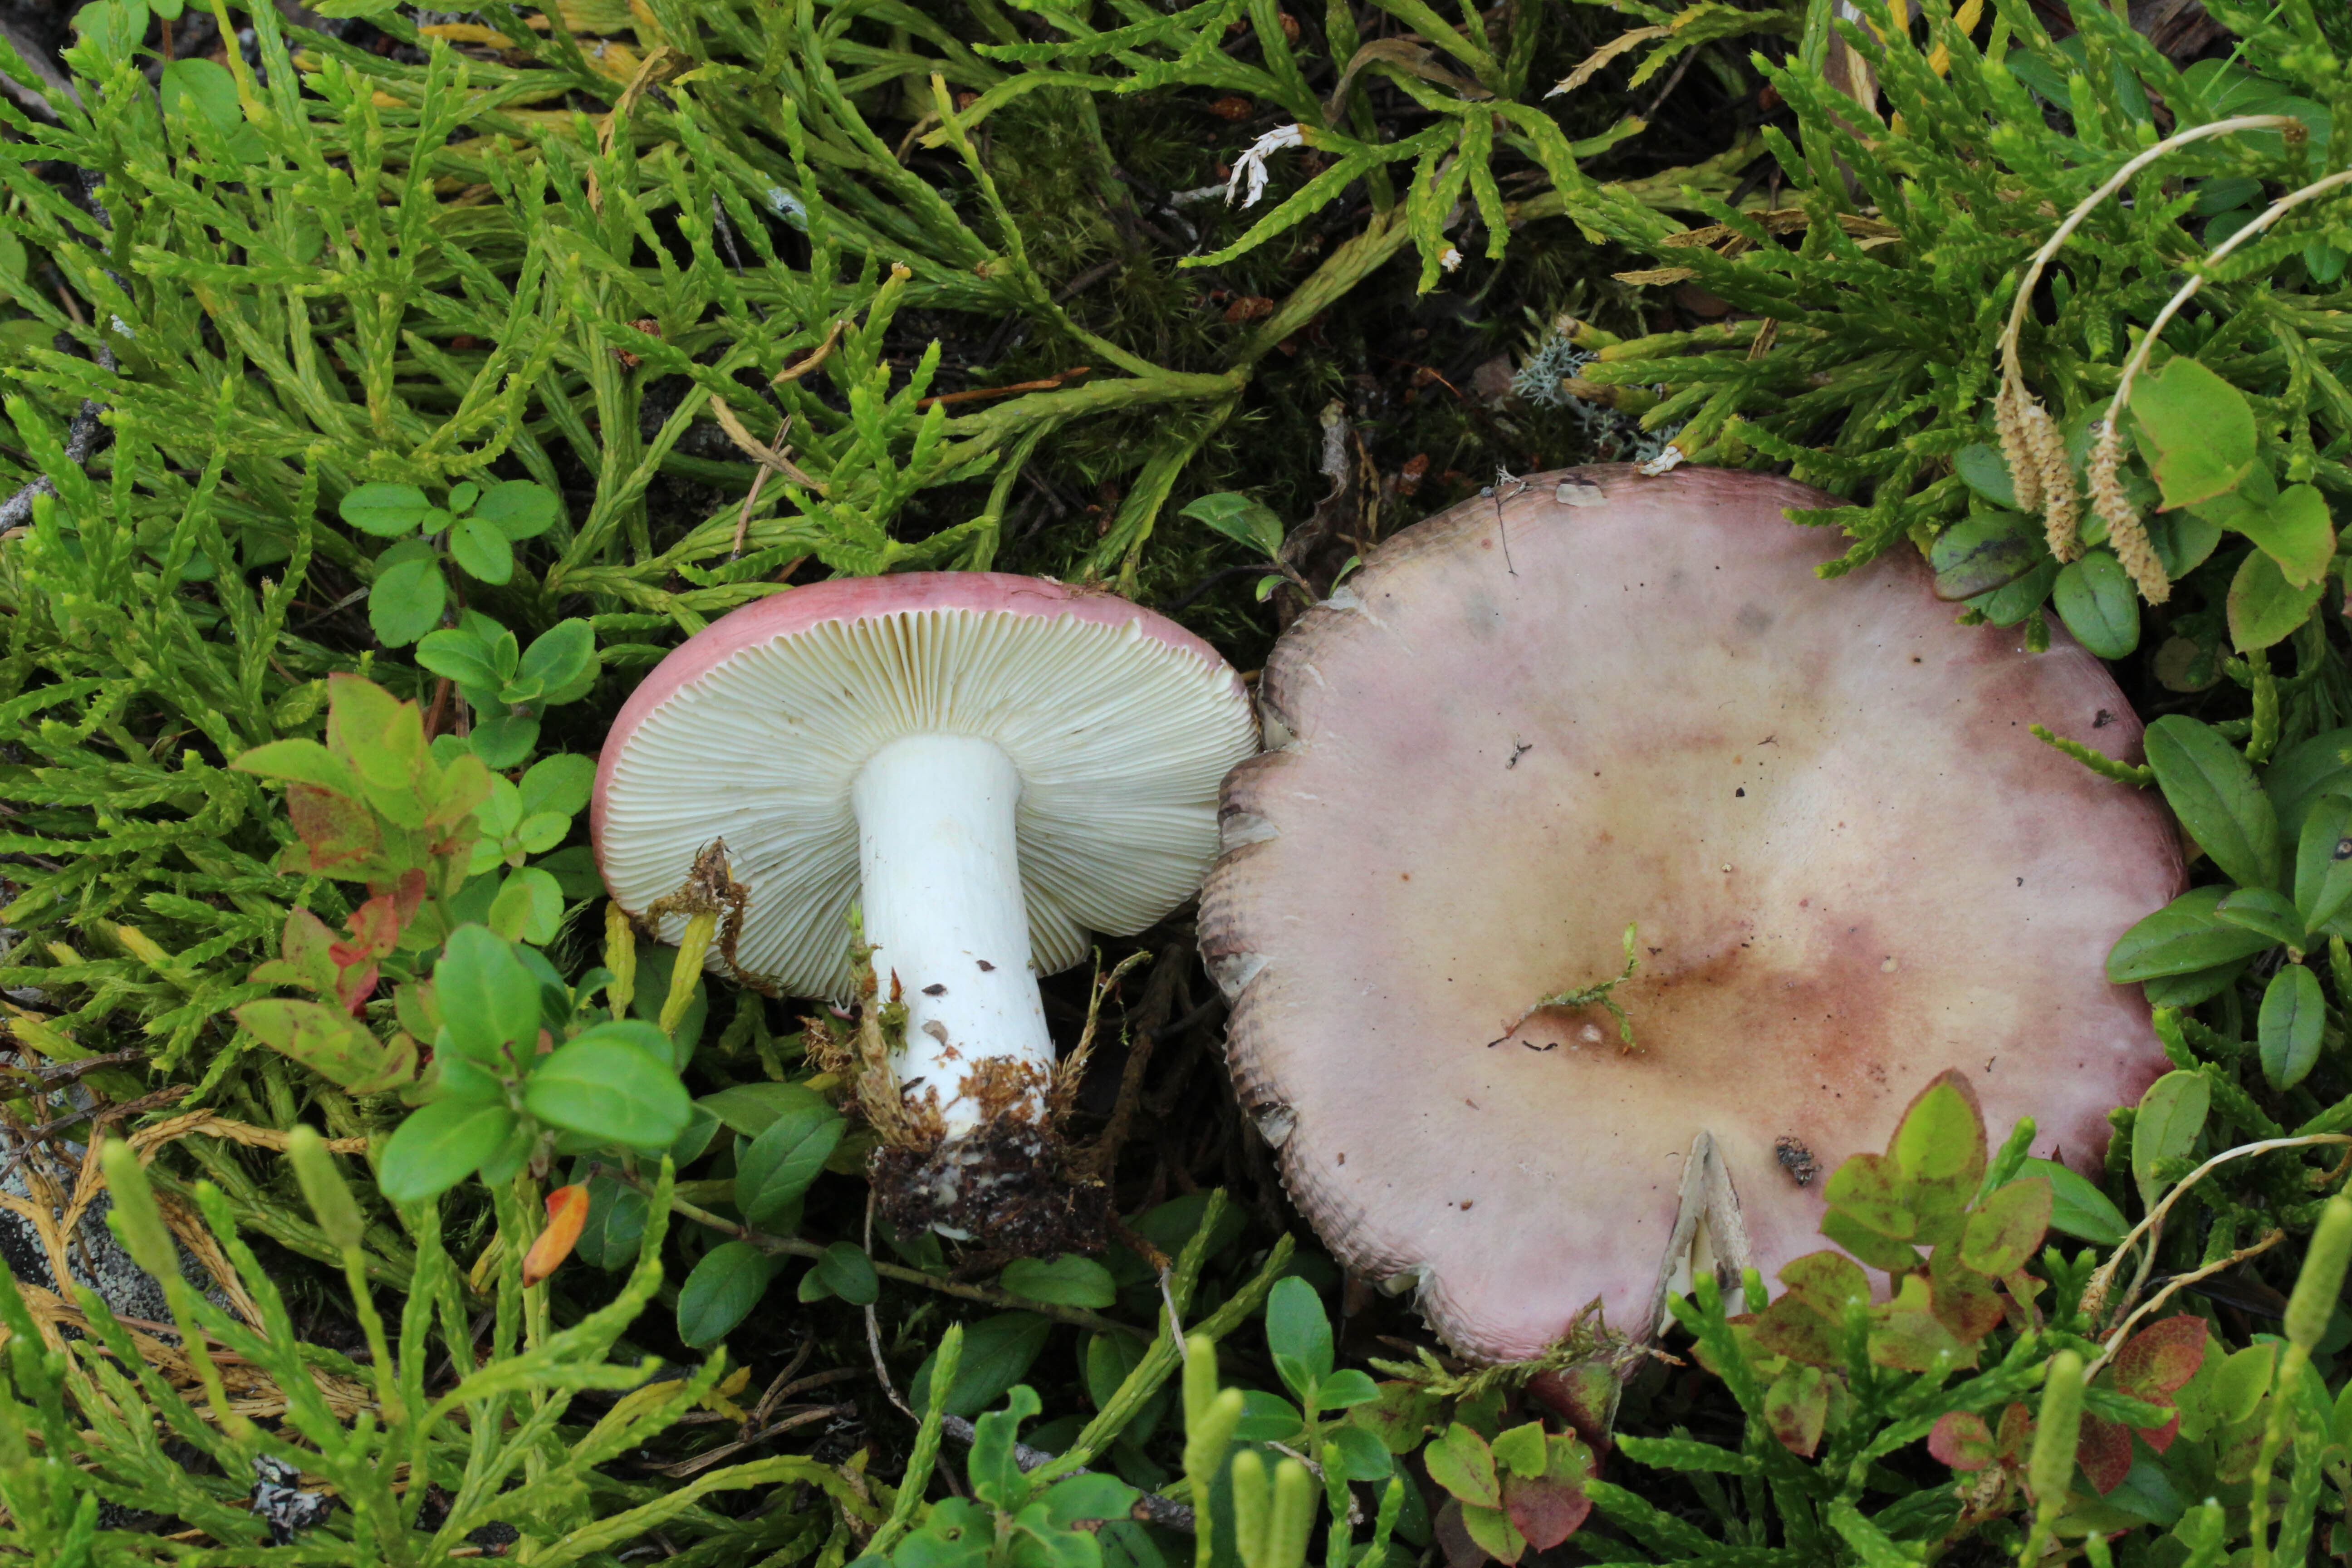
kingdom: Fungi
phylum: Basidiomycota
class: Agaricomycetes
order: Russulales
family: Russulaceae
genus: Russula
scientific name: Russula vinosa
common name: Darkening brittlegill
